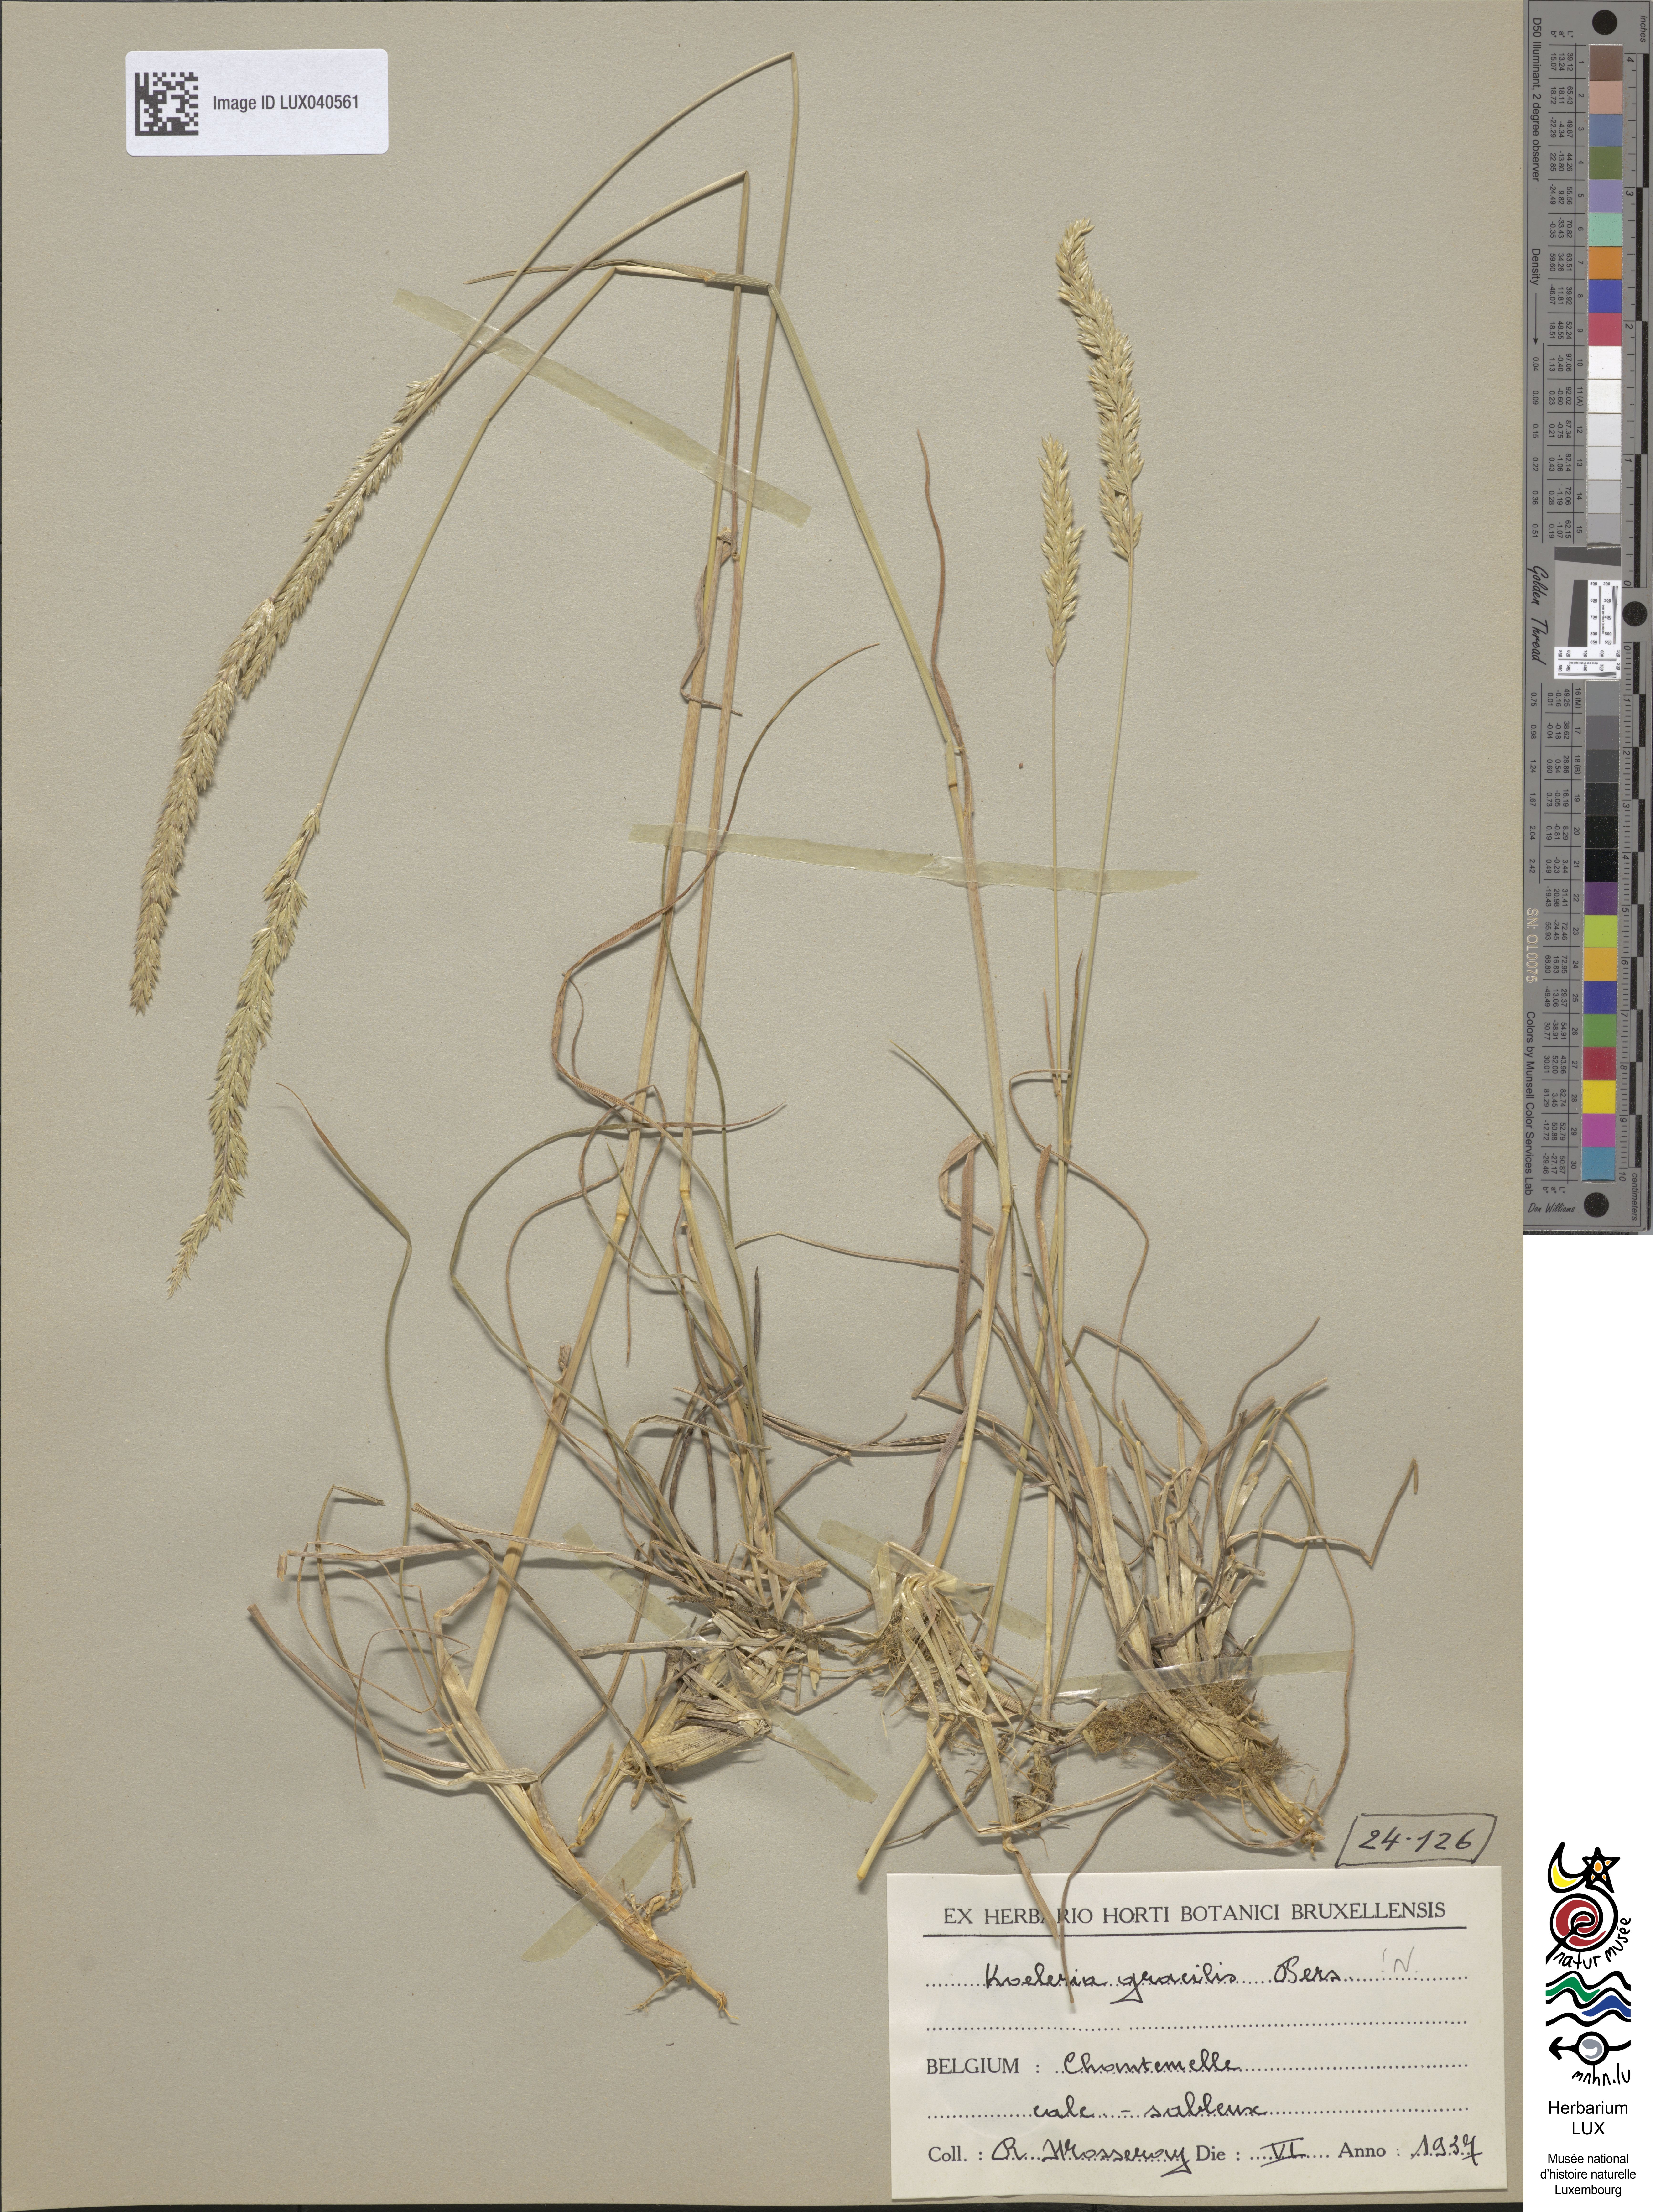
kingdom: Plantae
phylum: Tracheophyta
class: Liliopsida
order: Poales
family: Poaceae
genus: Koeleria
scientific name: Koeleria macrantha
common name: Crested hair-grass
